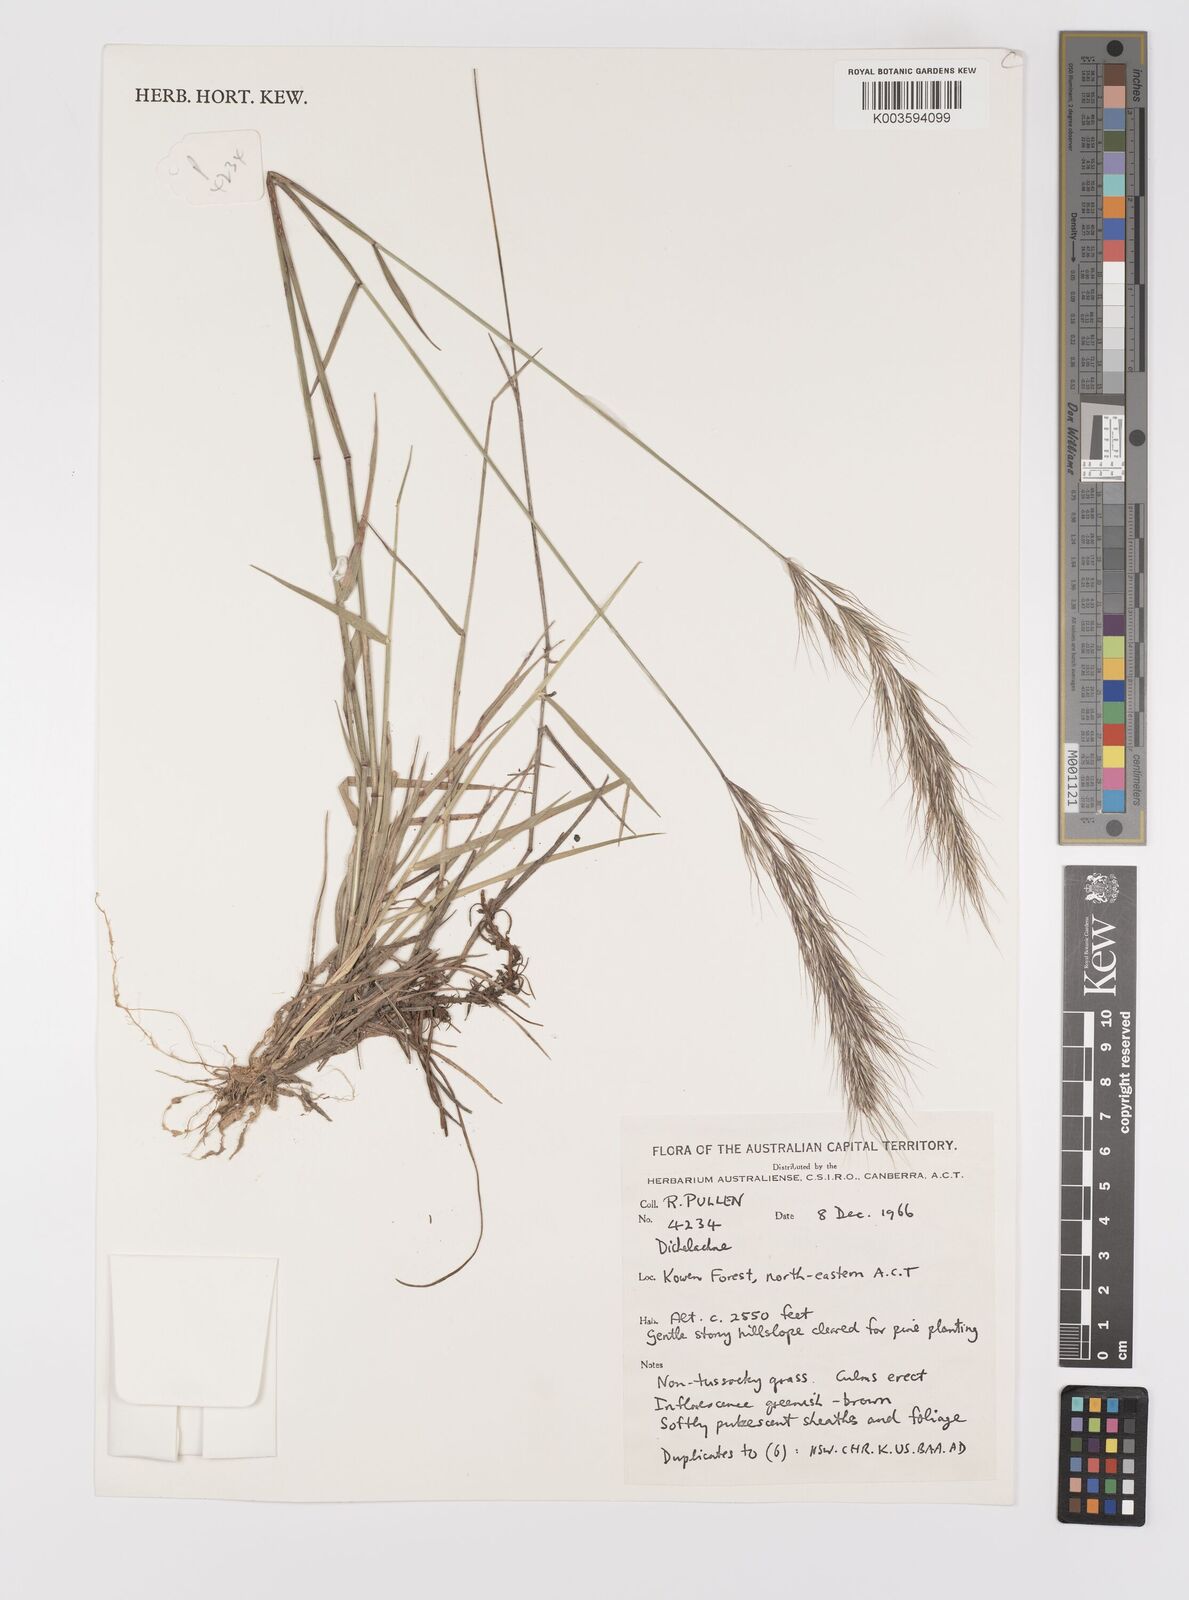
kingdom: Plantae
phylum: Tracheophyta
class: Liliopsida
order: Poales
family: Poaceae
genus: Dichelachne
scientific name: Dichelachne
